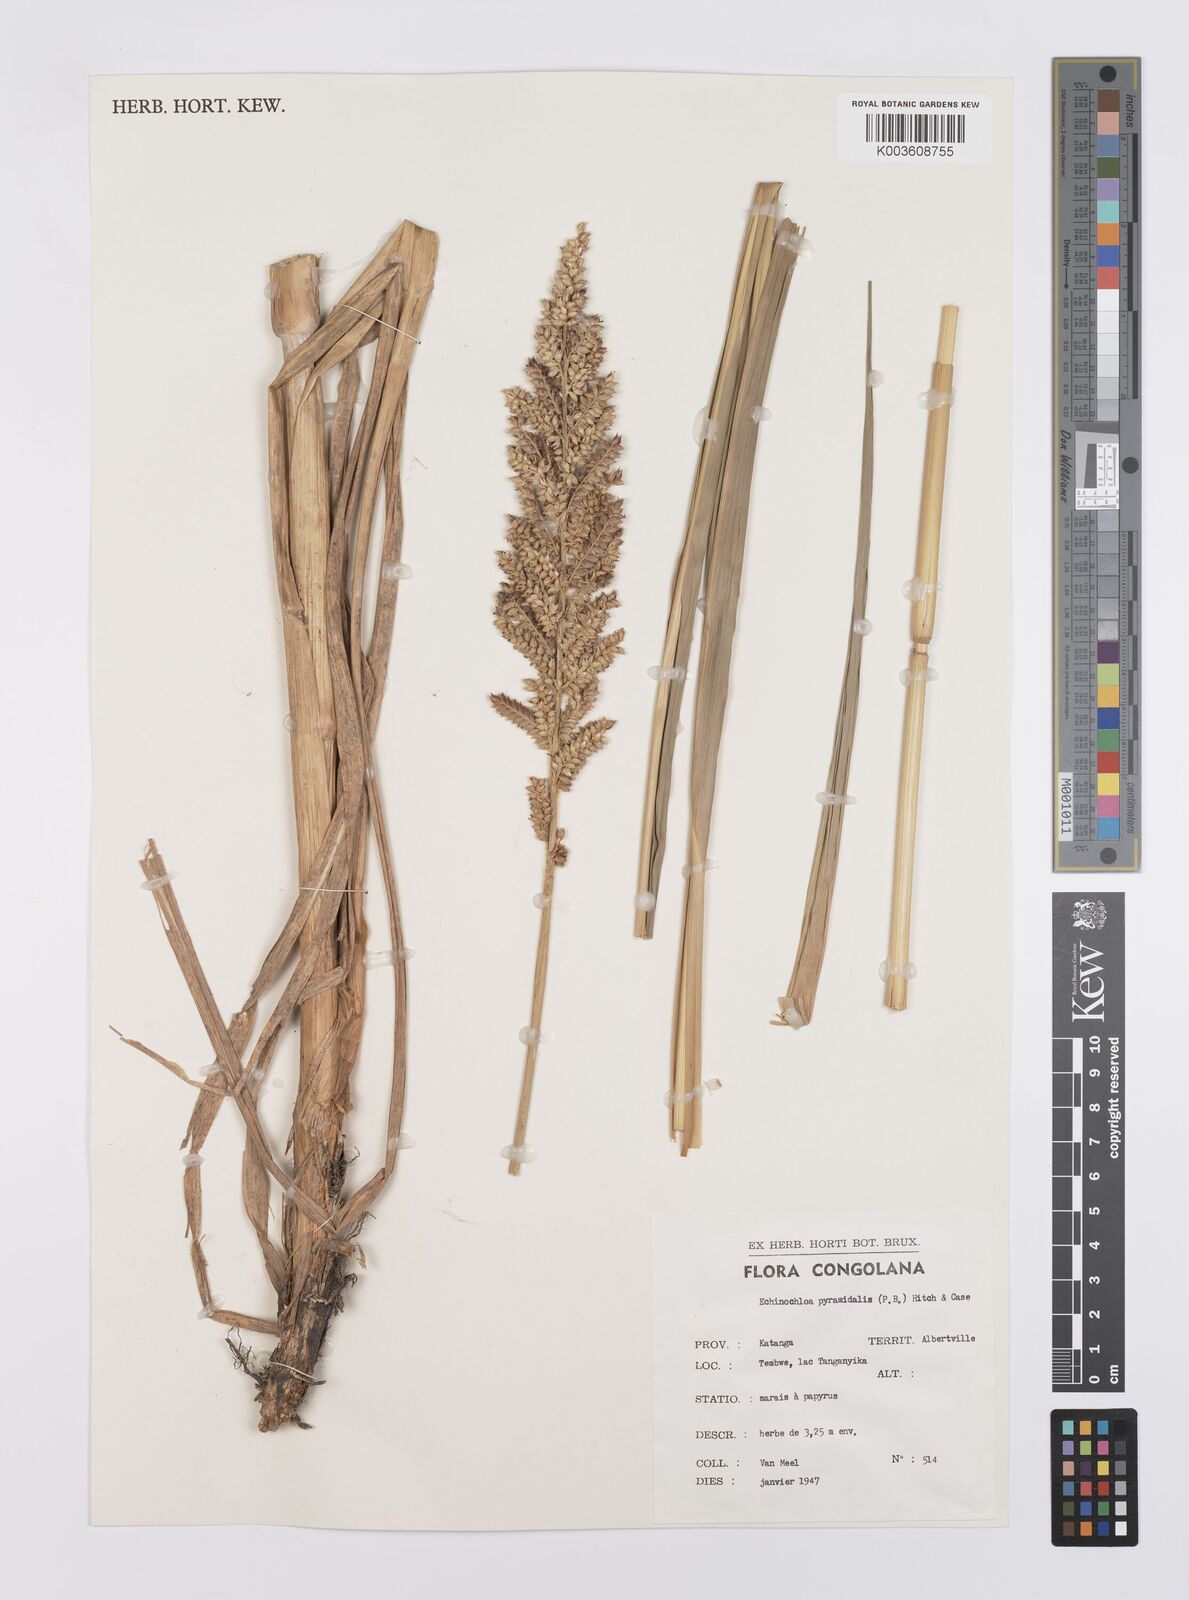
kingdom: Plantae
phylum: Tracheophyta
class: Liliopsida
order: Poales
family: Poaceae
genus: Echinochloa
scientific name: Echinochloa pyramidalis
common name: Antelope grass
